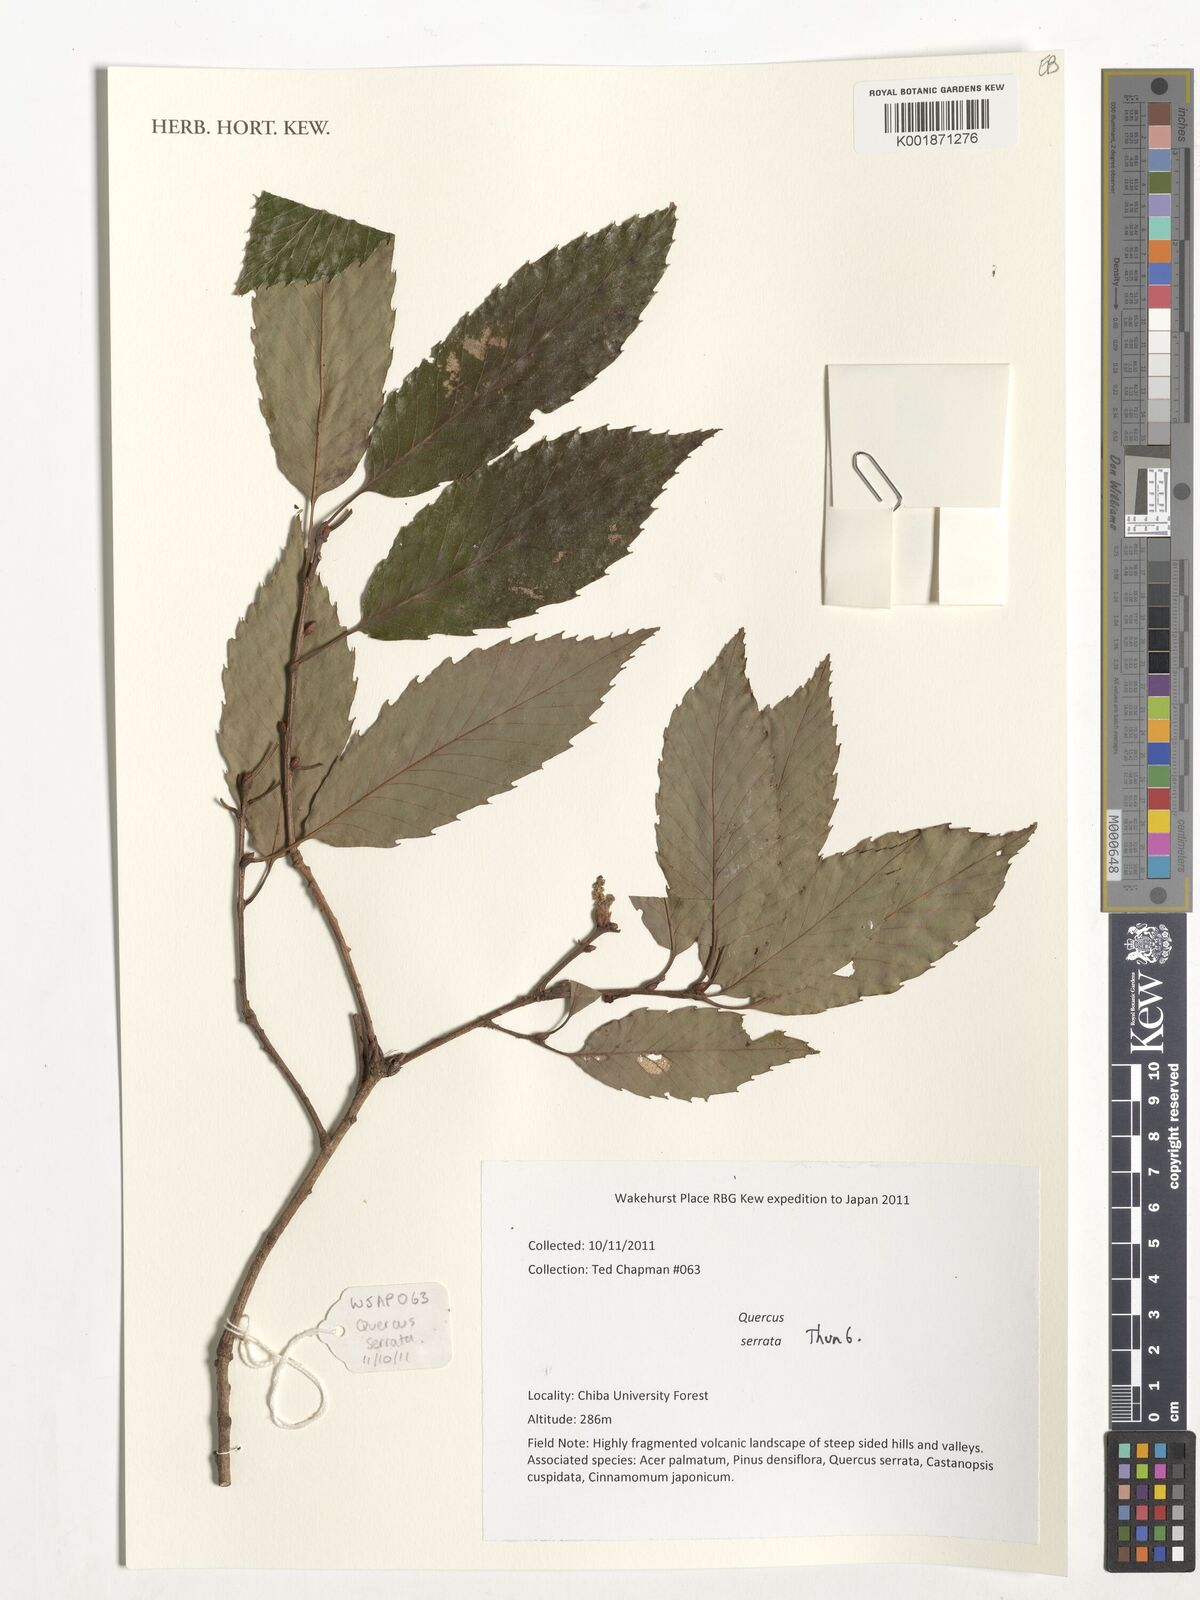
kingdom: Plantae
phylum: Tracheophyta
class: Magnoliopsida
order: Fagales
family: Fagaceae
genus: Quercus
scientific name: Quercus
